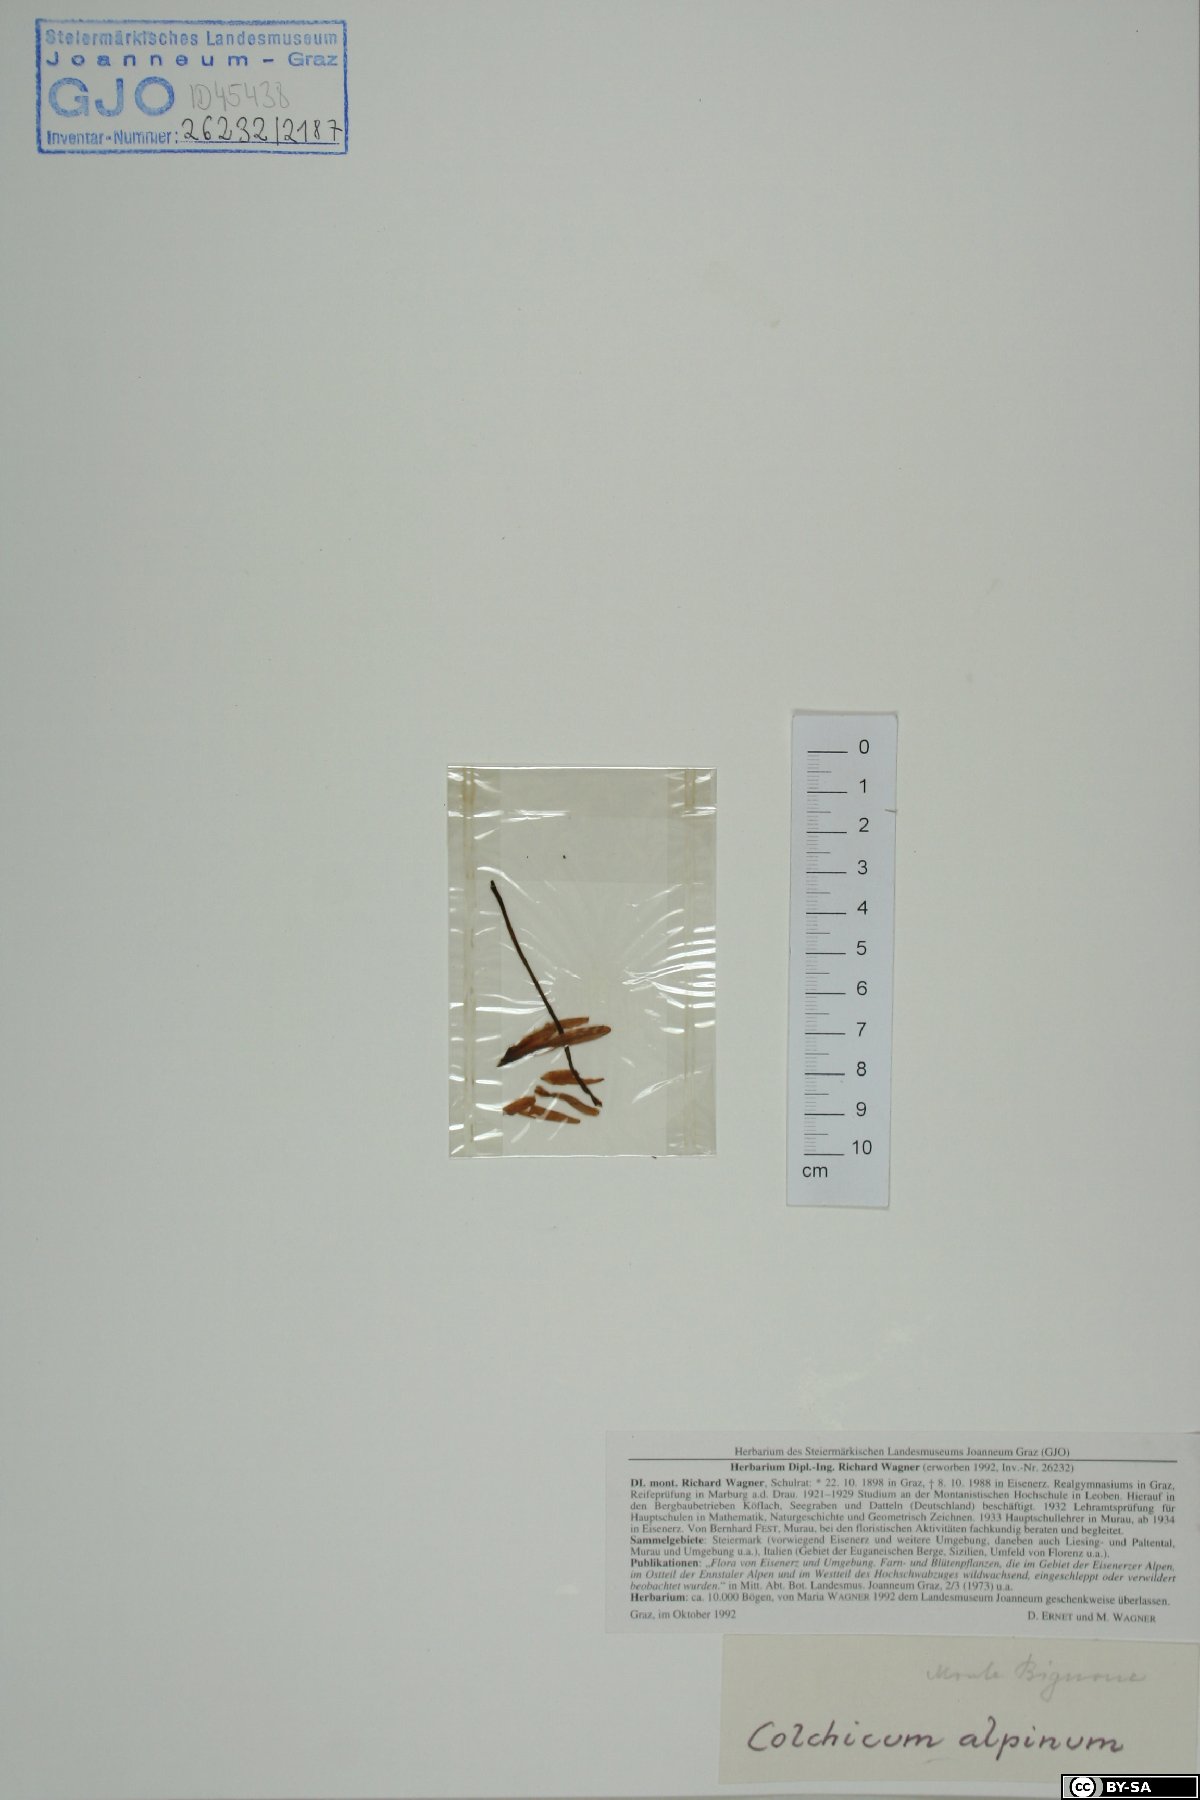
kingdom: Plantae
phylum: Tracheophyta
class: Liliopsida
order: Liliales
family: Colchicaceae
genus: Colchicum
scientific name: Colchicum alpinum
